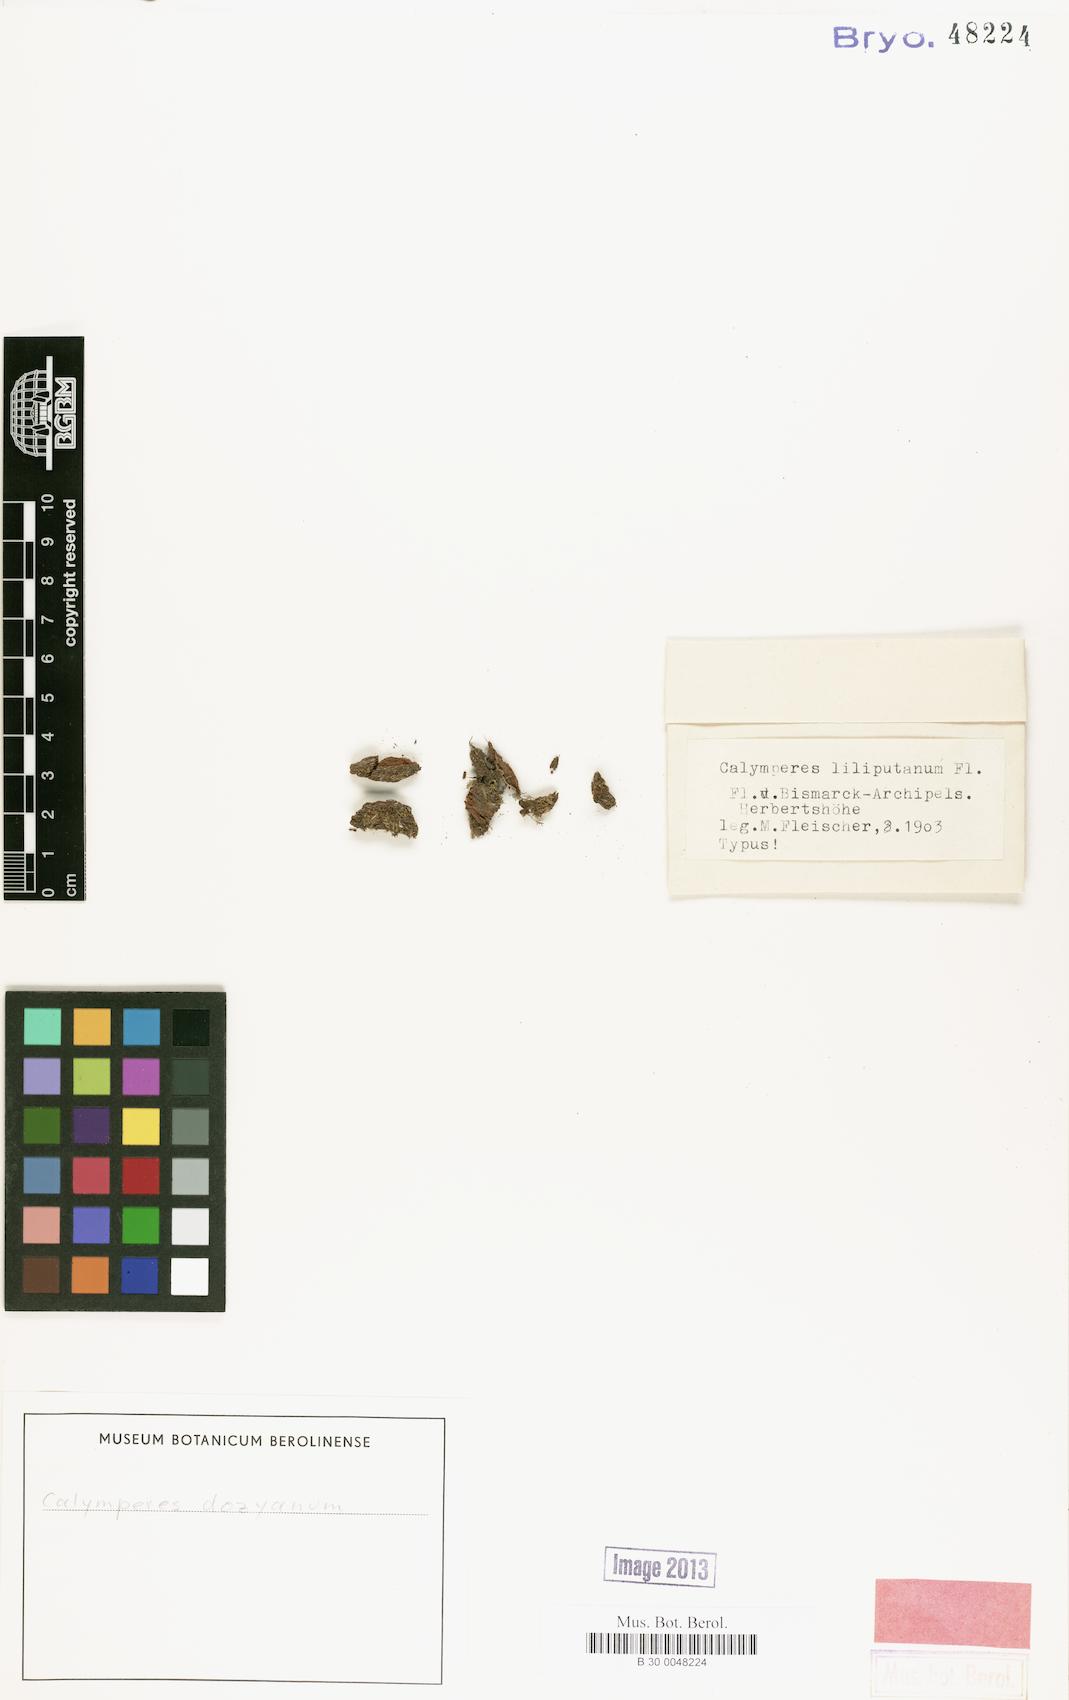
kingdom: Plantae
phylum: Bryophyta
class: Bryopsida
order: Dicranales
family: Calymperaceae
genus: Calymperes
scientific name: Calymperes moluccense
